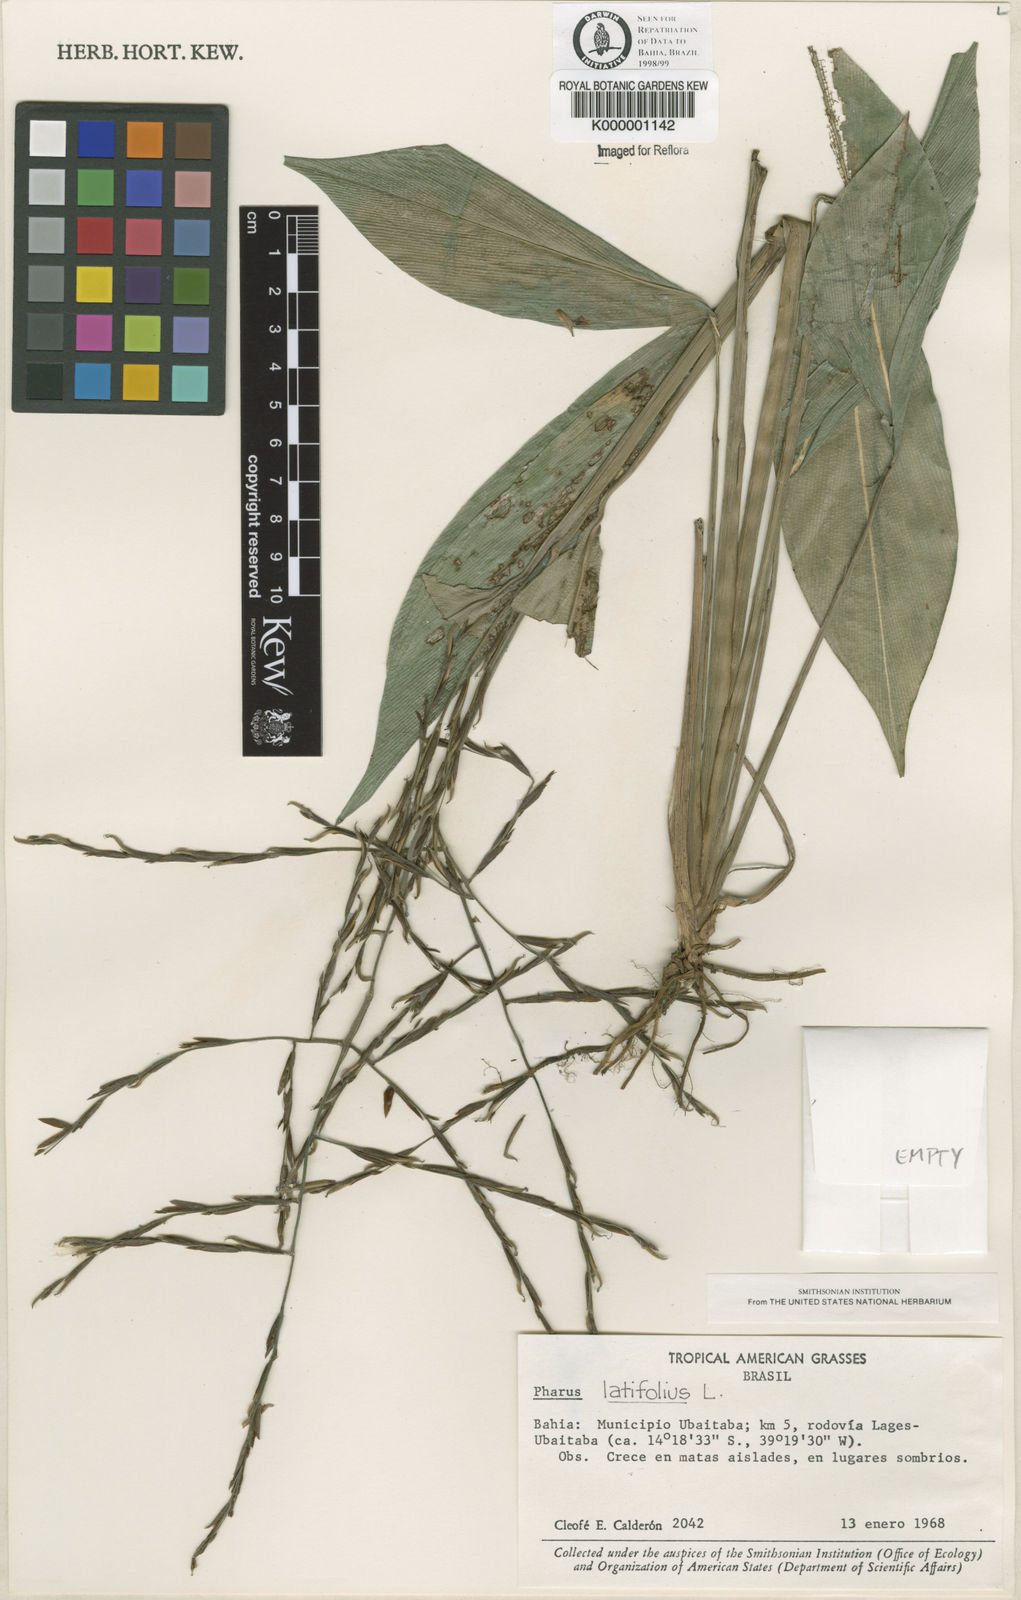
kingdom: Plantae
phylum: Tracheophyta
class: Liliopsida
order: Poales
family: Poaceae
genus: Pharus
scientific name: Pharus latifolius
